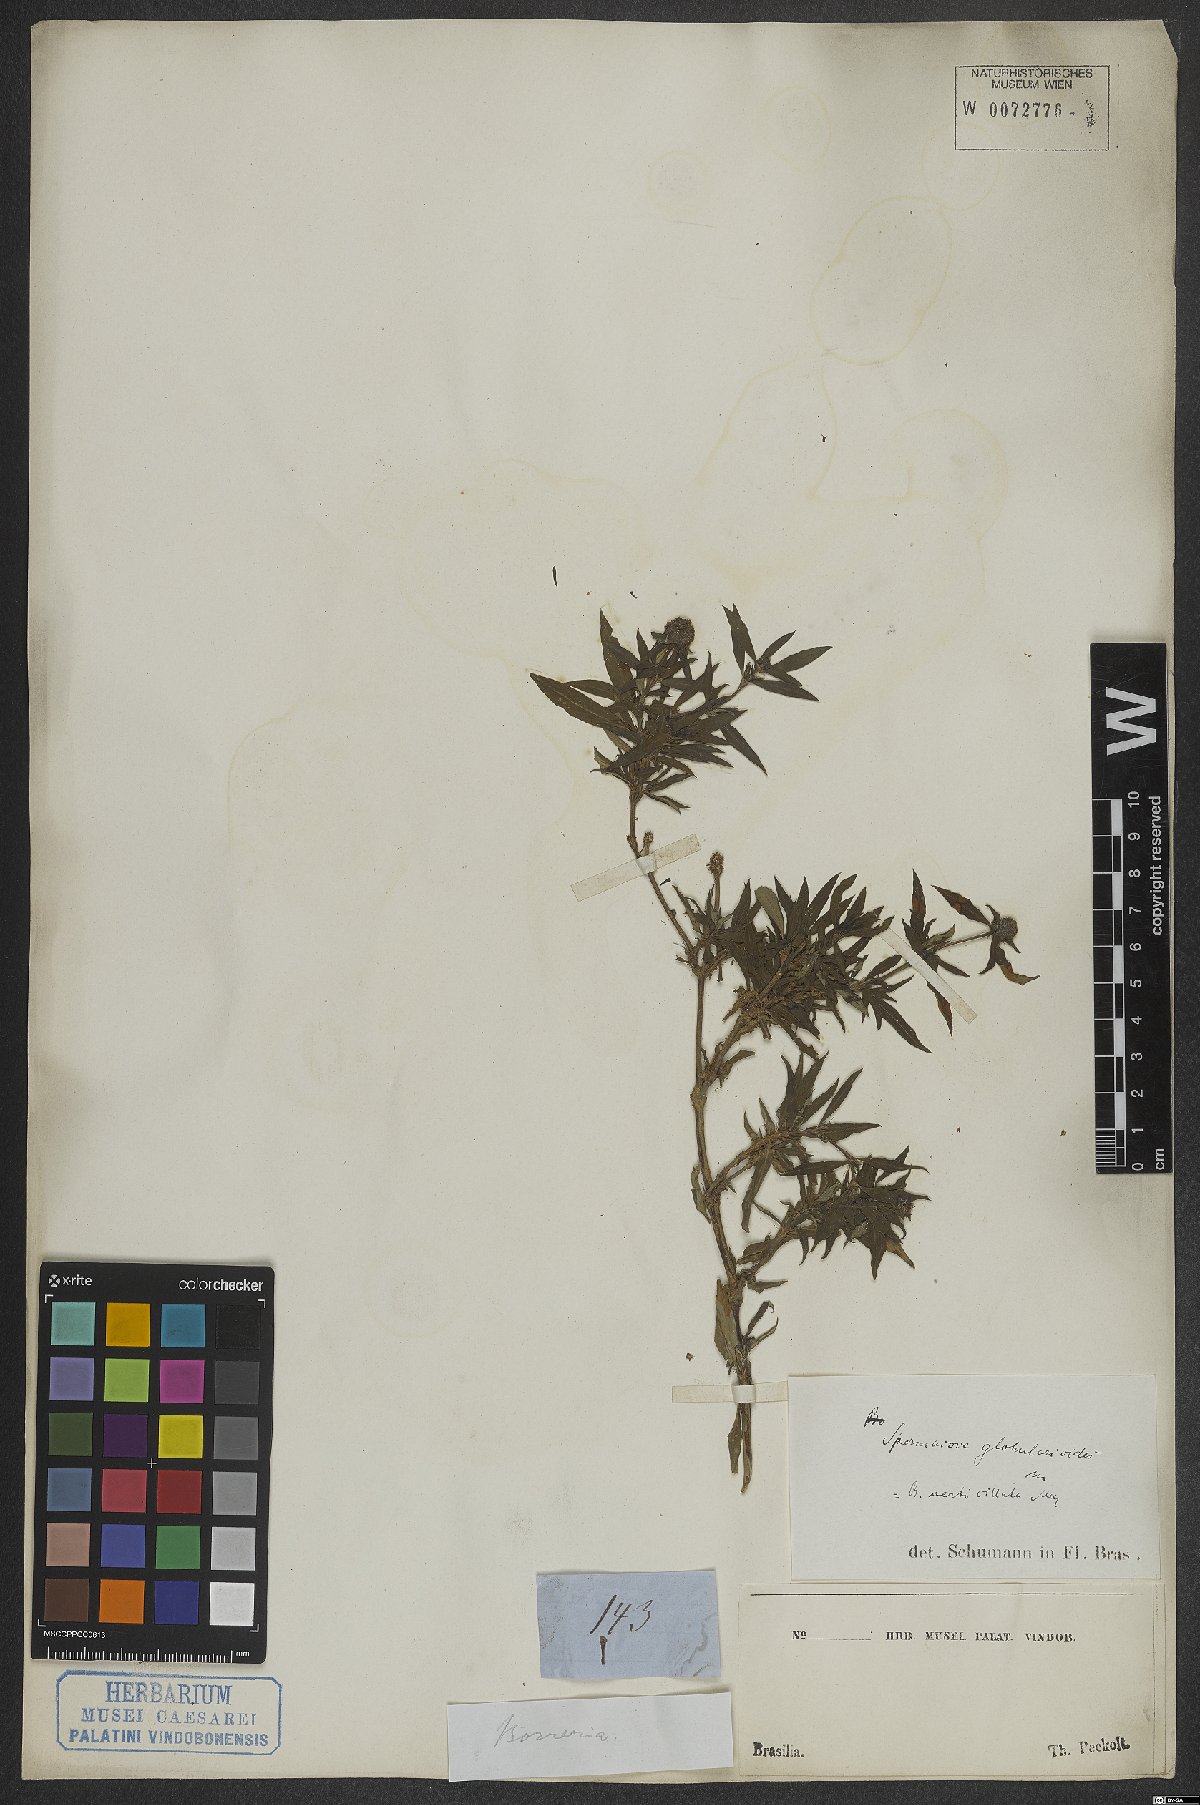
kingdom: Plantae
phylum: Tracheophyta
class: Magnoliopsida
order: Gentianales
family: Rubiaceae
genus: Spermacoce
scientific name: Spermacoce verticillata
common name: Shrubby false buttonweed
